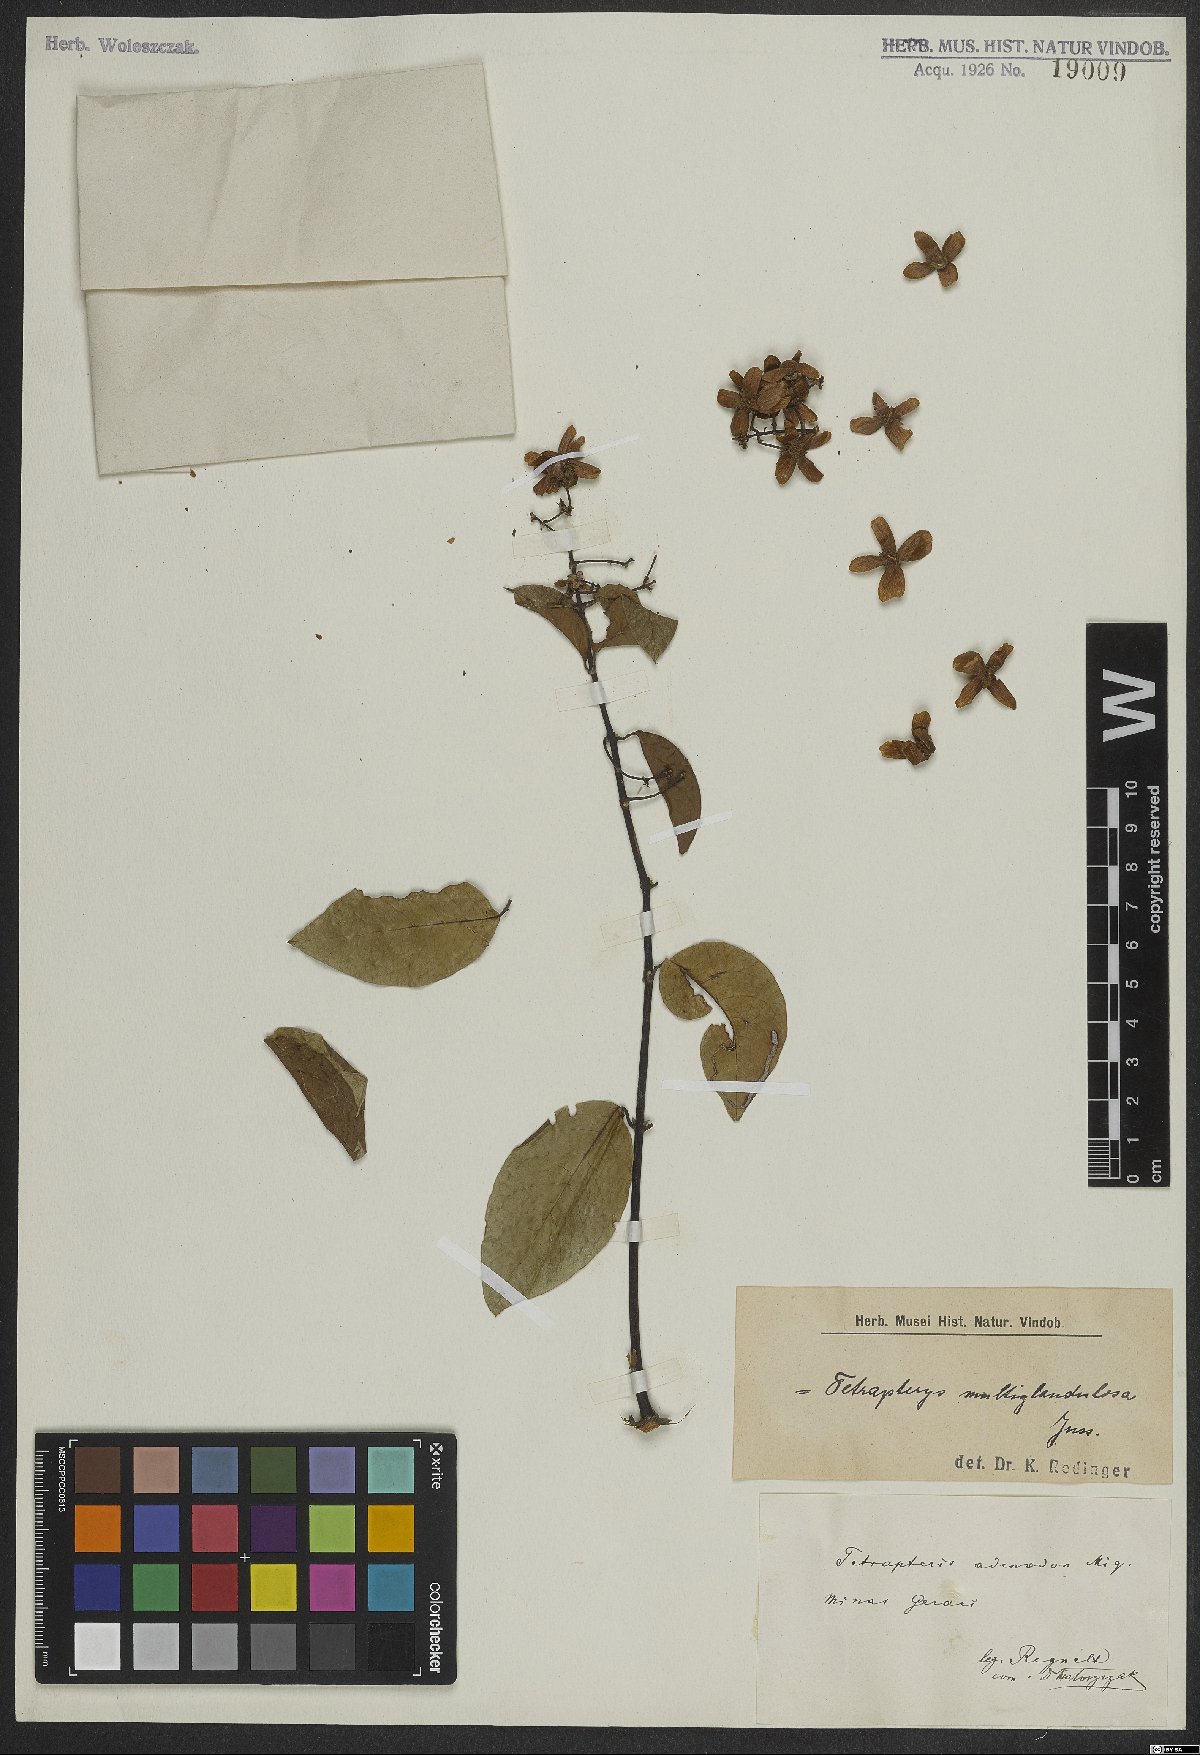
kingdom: Plantae
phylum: Tracheophyta
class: Magnoliopsida
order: Malpighiales
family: Malpighiaceae
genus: Niedenzuella
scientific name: Niedenzuella multiglandulosa
